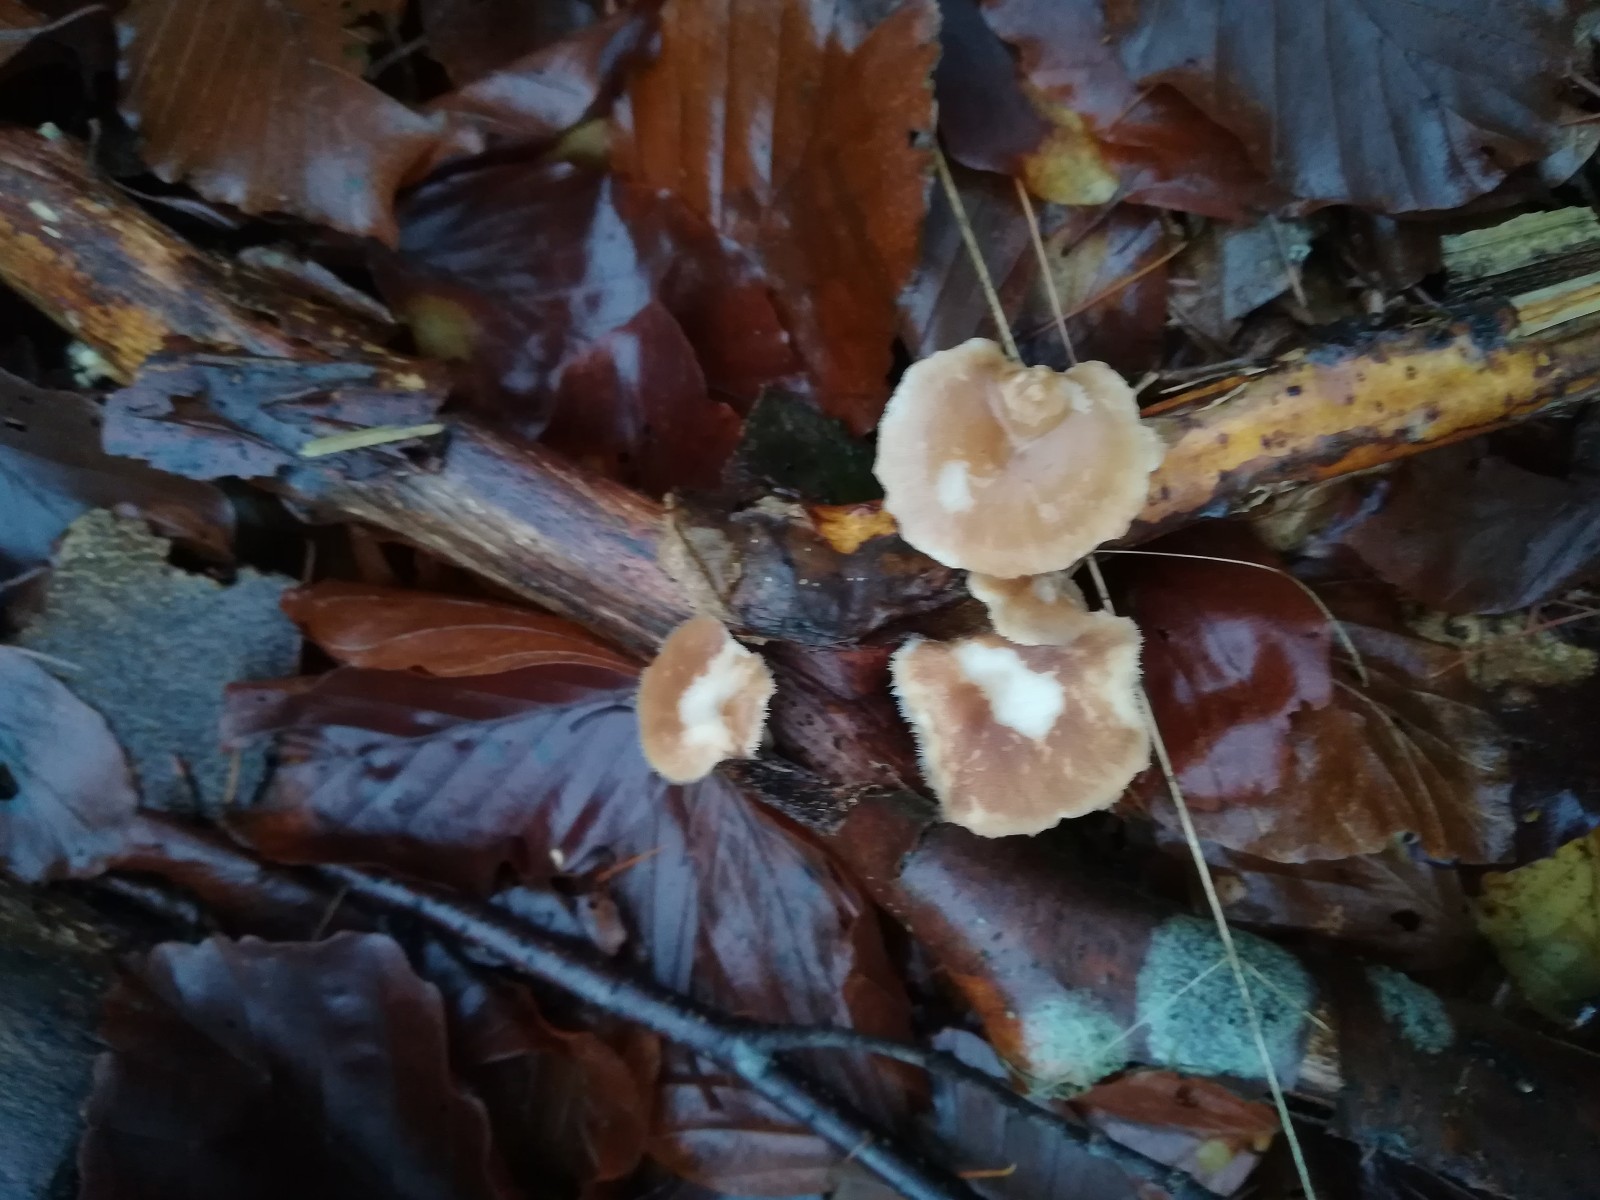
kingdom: Fungi
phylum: Basidiomycota
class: Agaricomycetes
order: Polyporales
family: Polyporaceae
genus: Lentinus
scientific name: Lentinus brumalis
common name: vinter-stilkporesvamp
